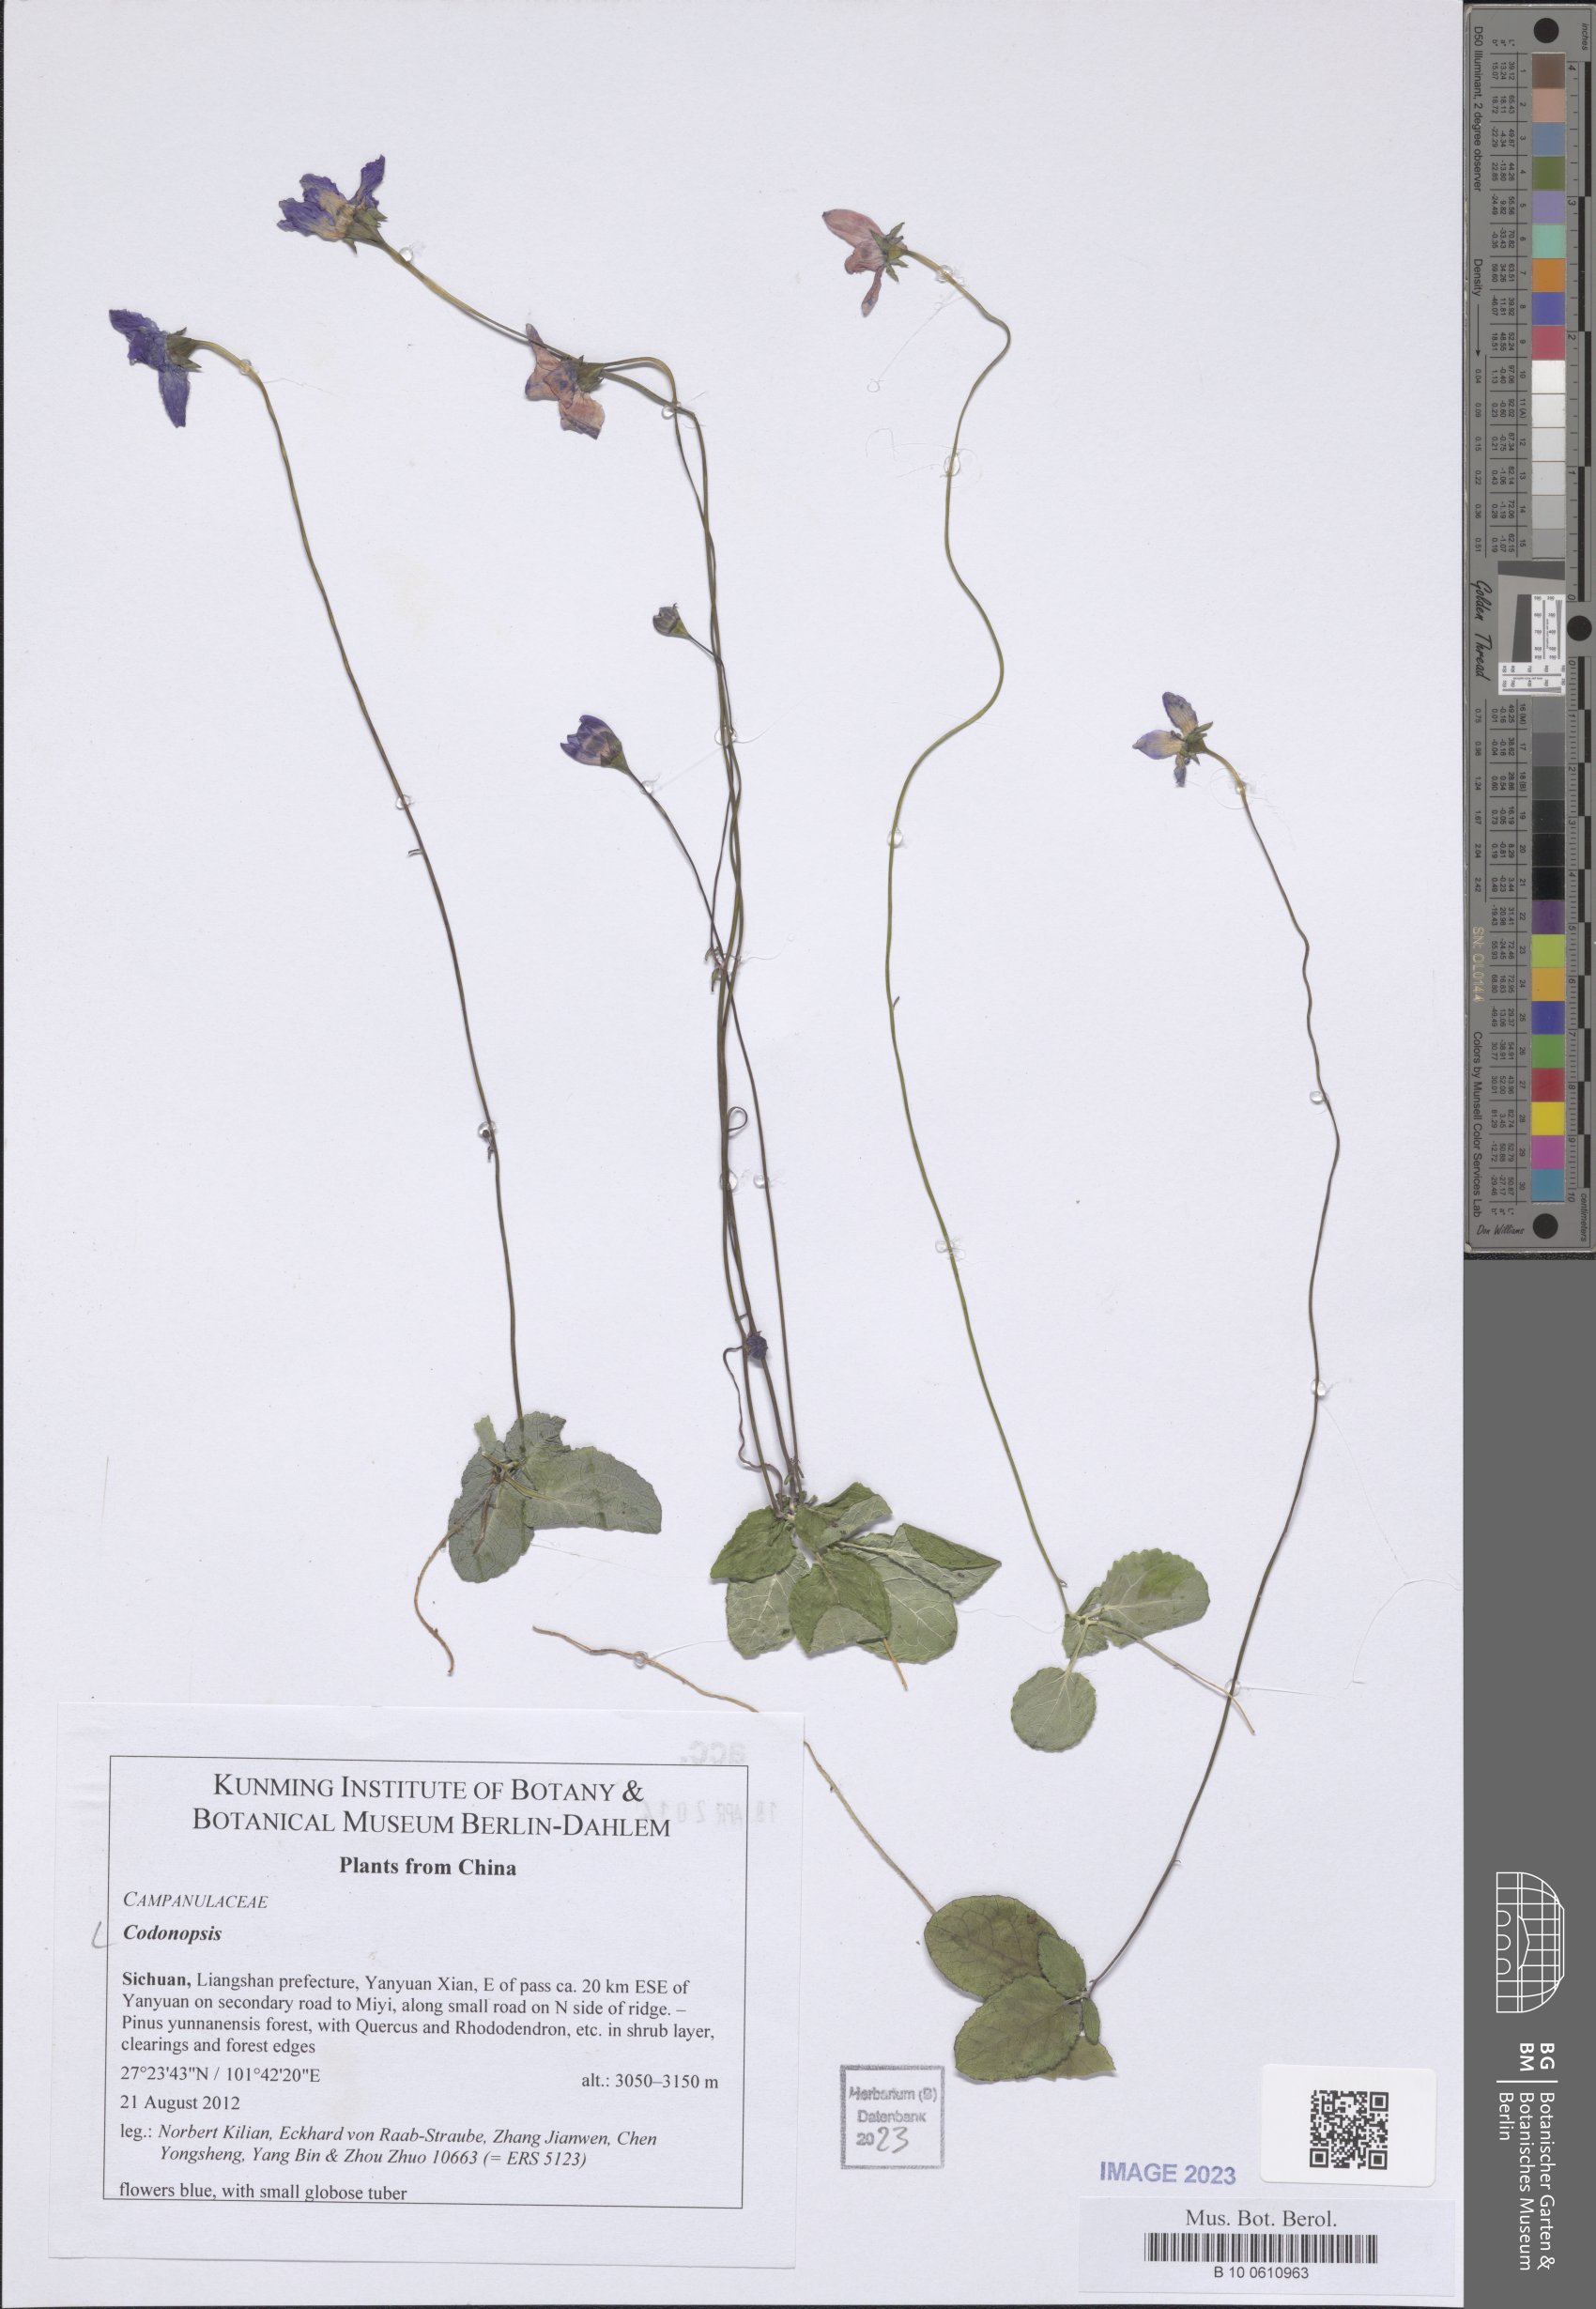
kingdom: Plantae
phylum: Tracheophyta
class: Magnoliopsida
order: Asterales
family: Campanulaceae
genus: Codonopsis
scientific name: Codonopsis
